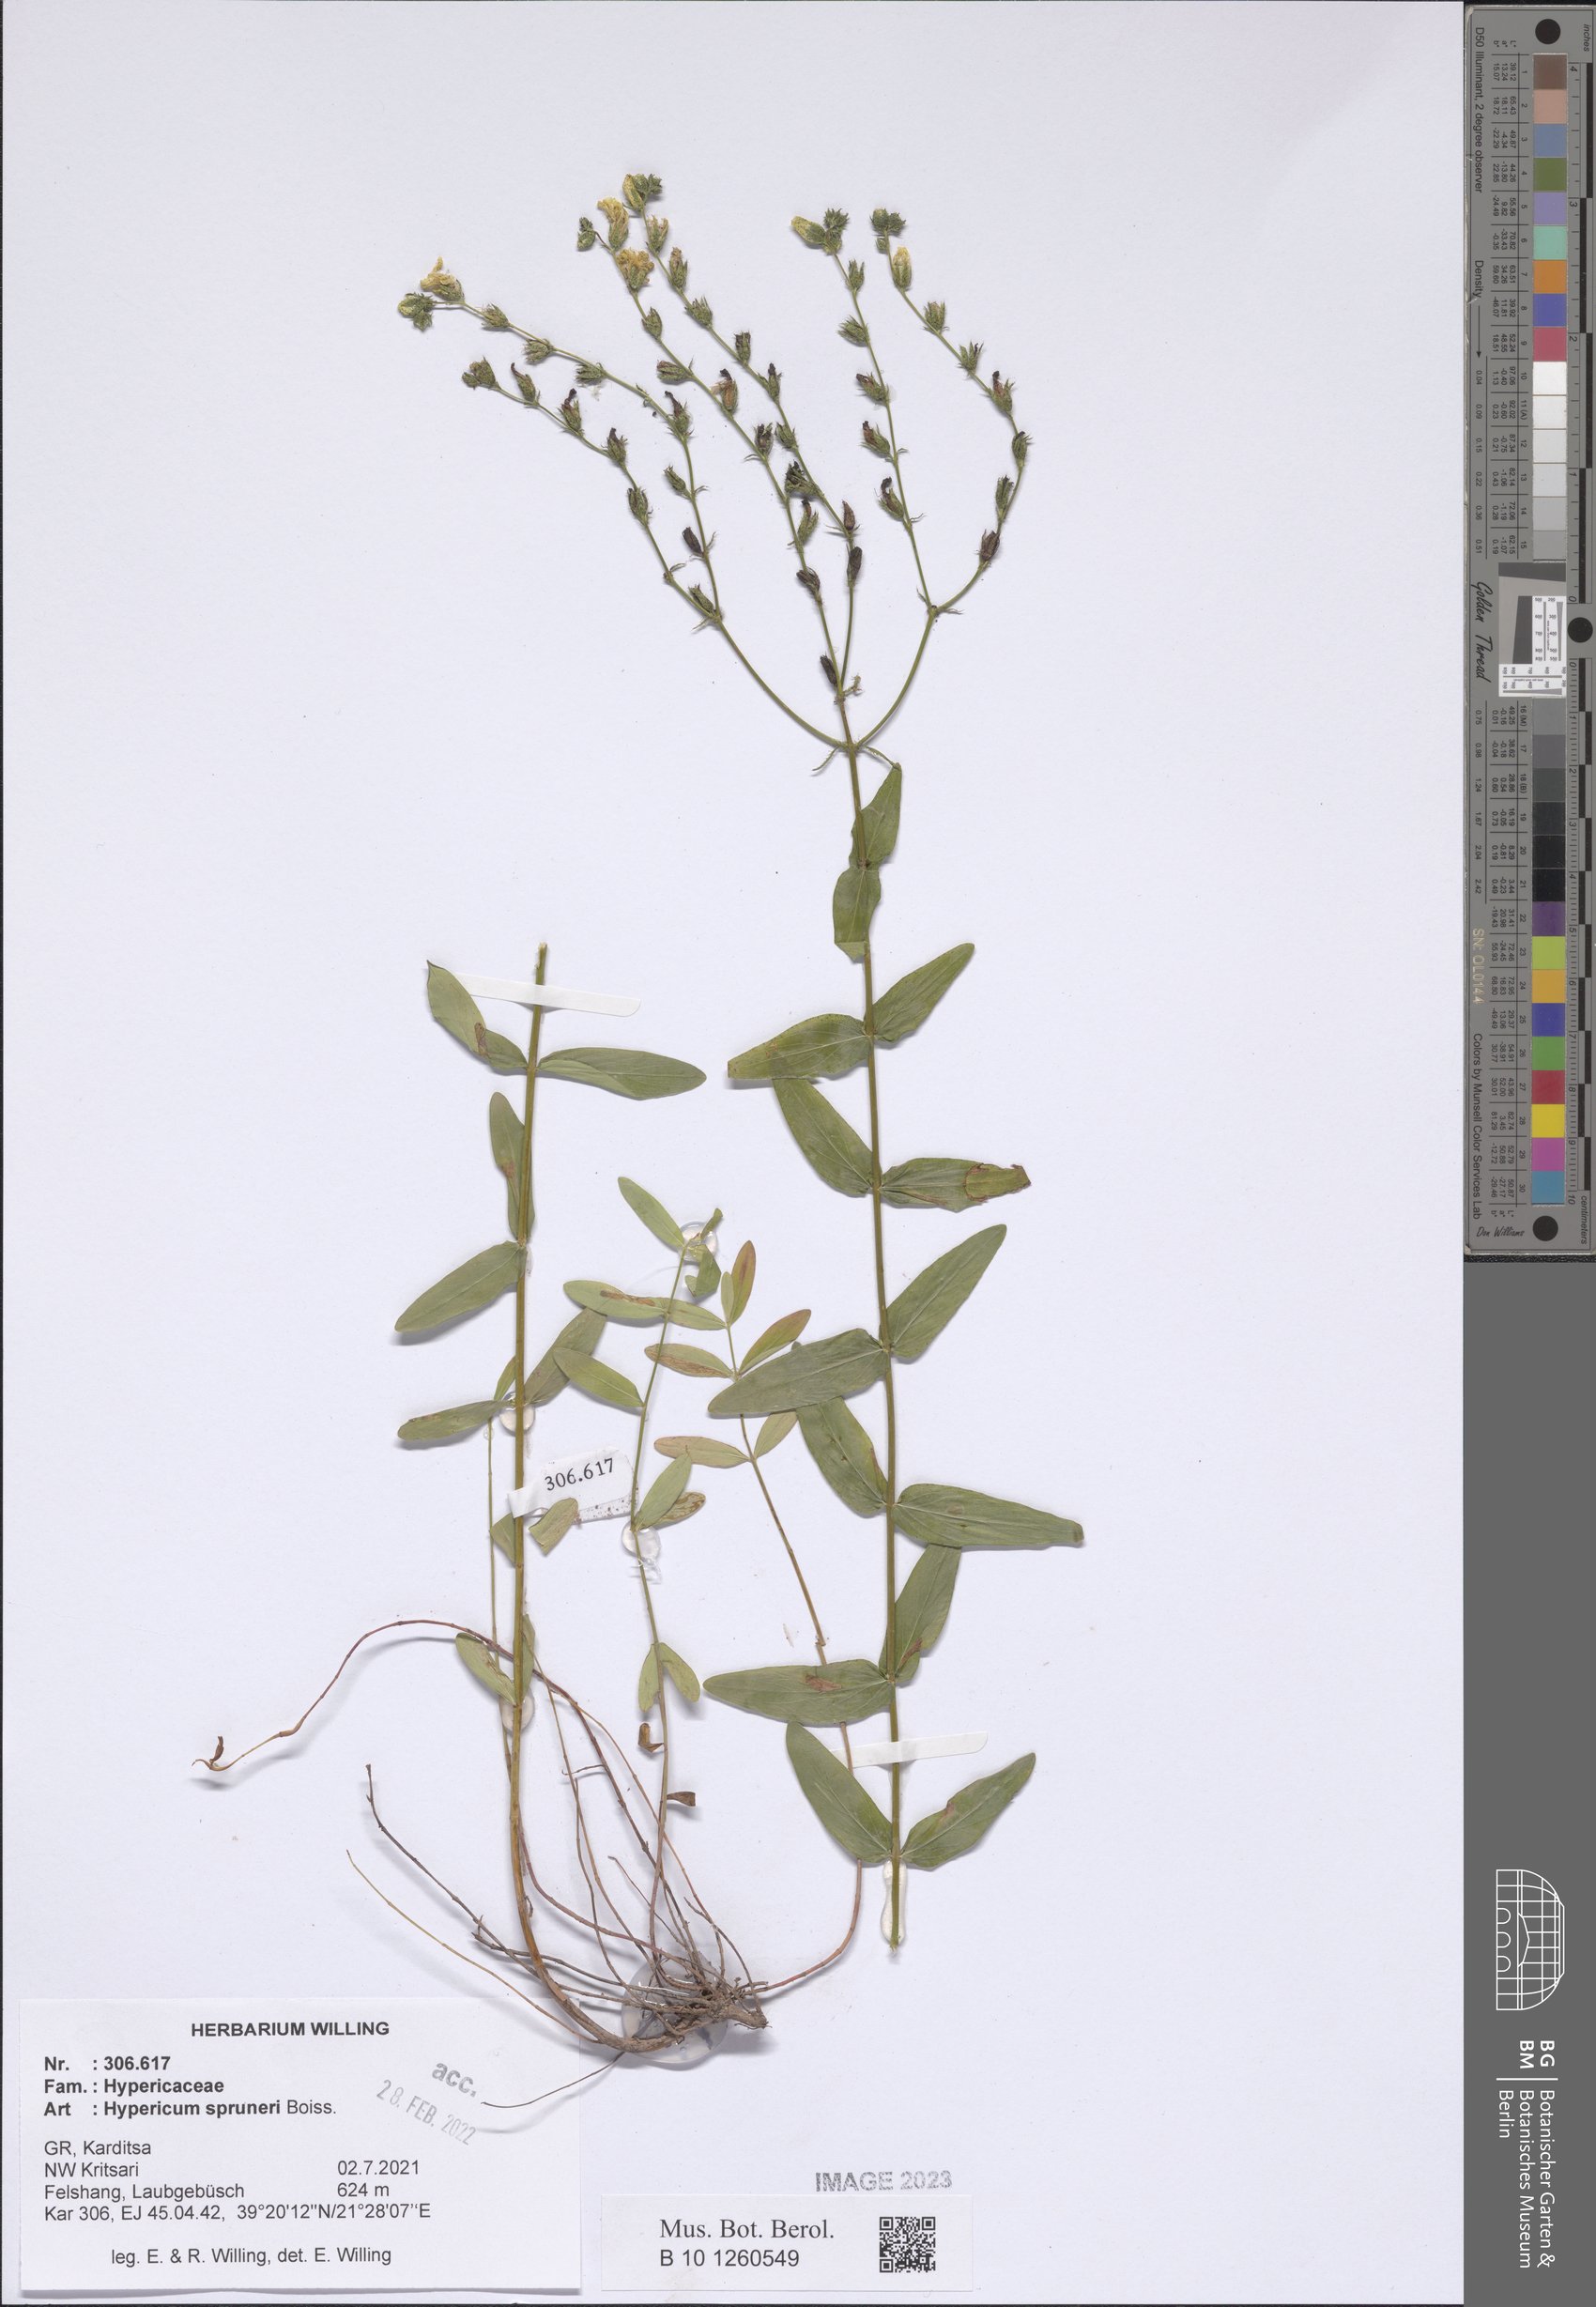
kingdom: Plantae
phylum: Tracheophyta
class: Magnoliopsida
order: Malpighiales
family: Hypericaceae
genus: Hypericum
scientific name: Hypericum spruneri
